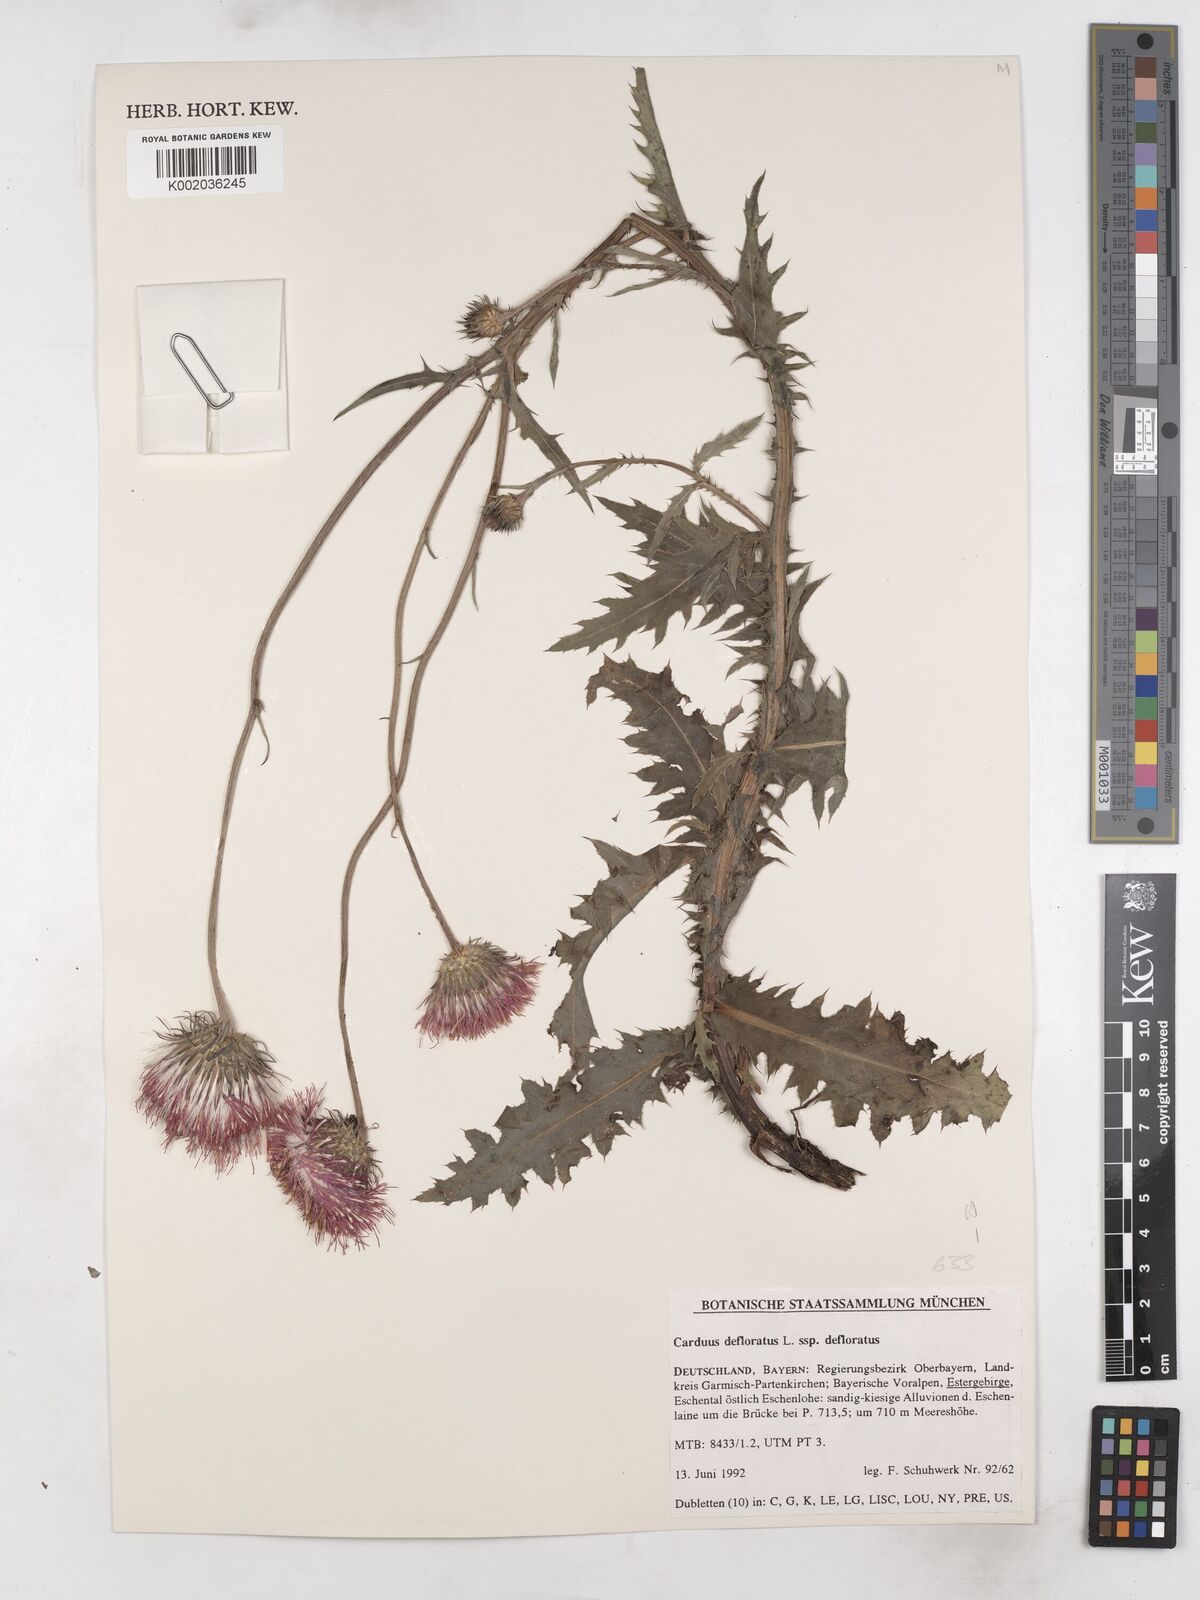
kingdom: Plantae
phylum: Tracheophyta
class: Magnoliopsida
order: Asterales
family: Asteraceae
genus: Carduus
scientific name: Carduus defloratus
